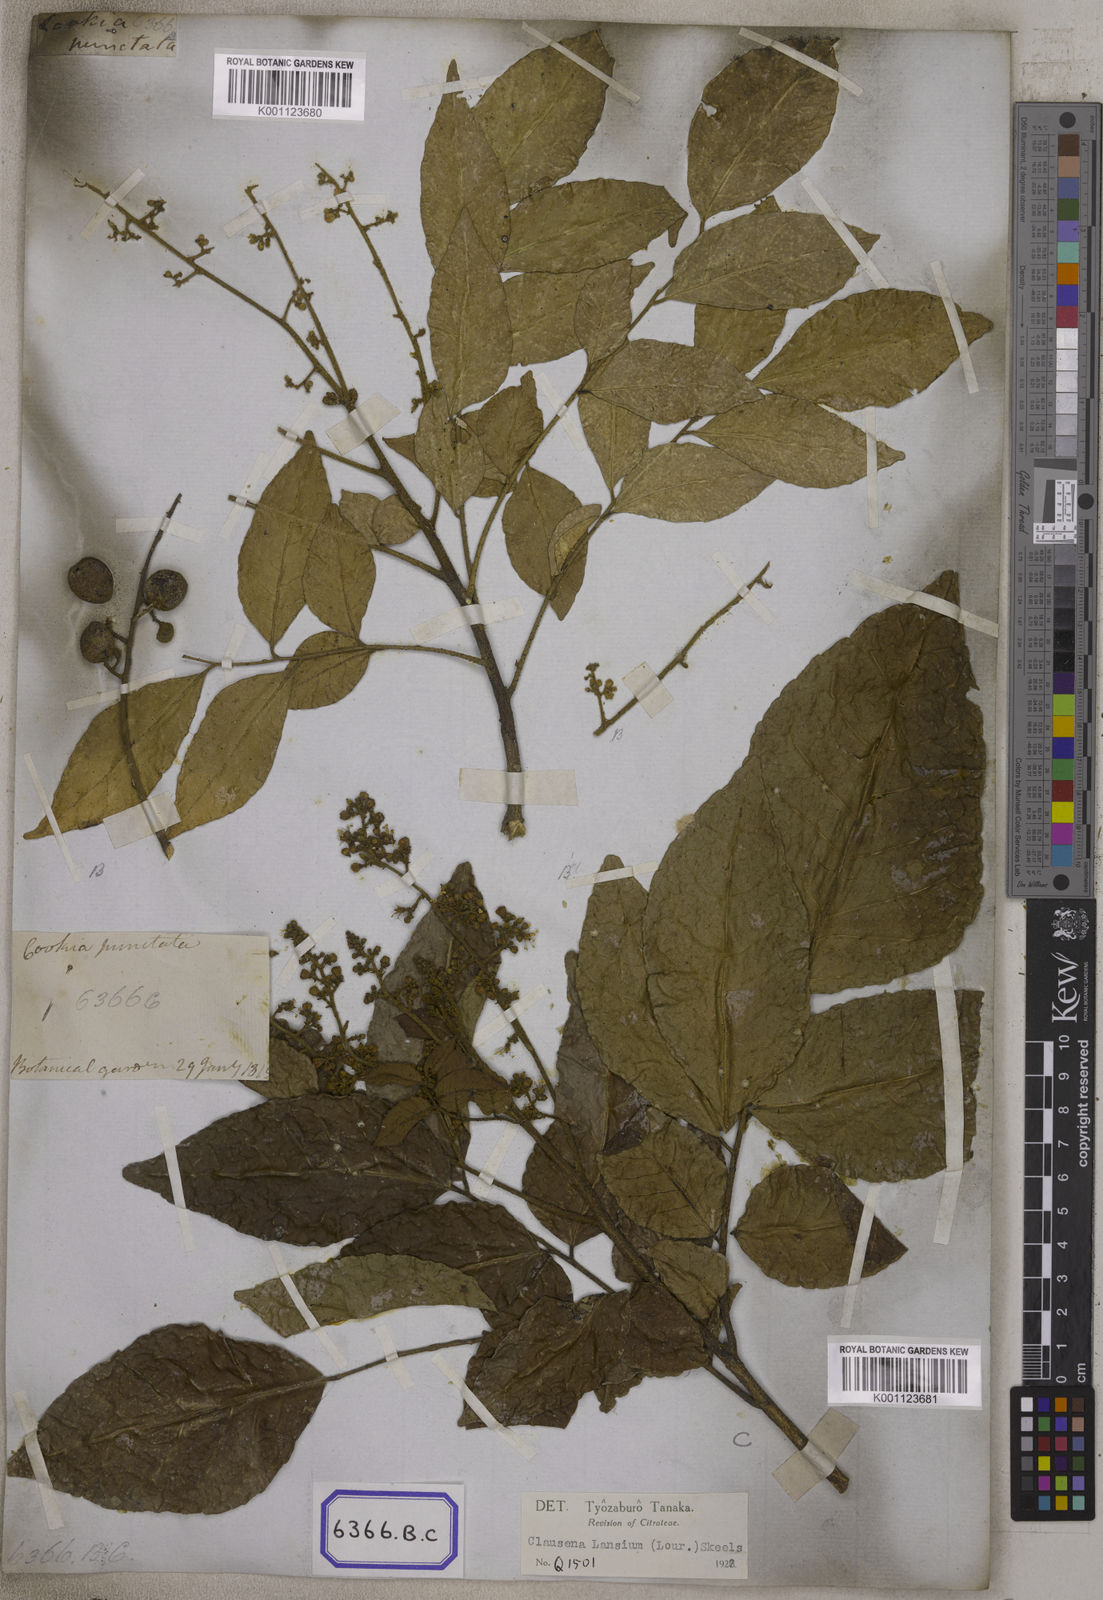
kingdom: Plantae
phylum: Tracheophyta
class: Magnoliopsida
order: Sapindales
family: Rutaceae
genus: Clausena
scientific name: Clausena excavata
